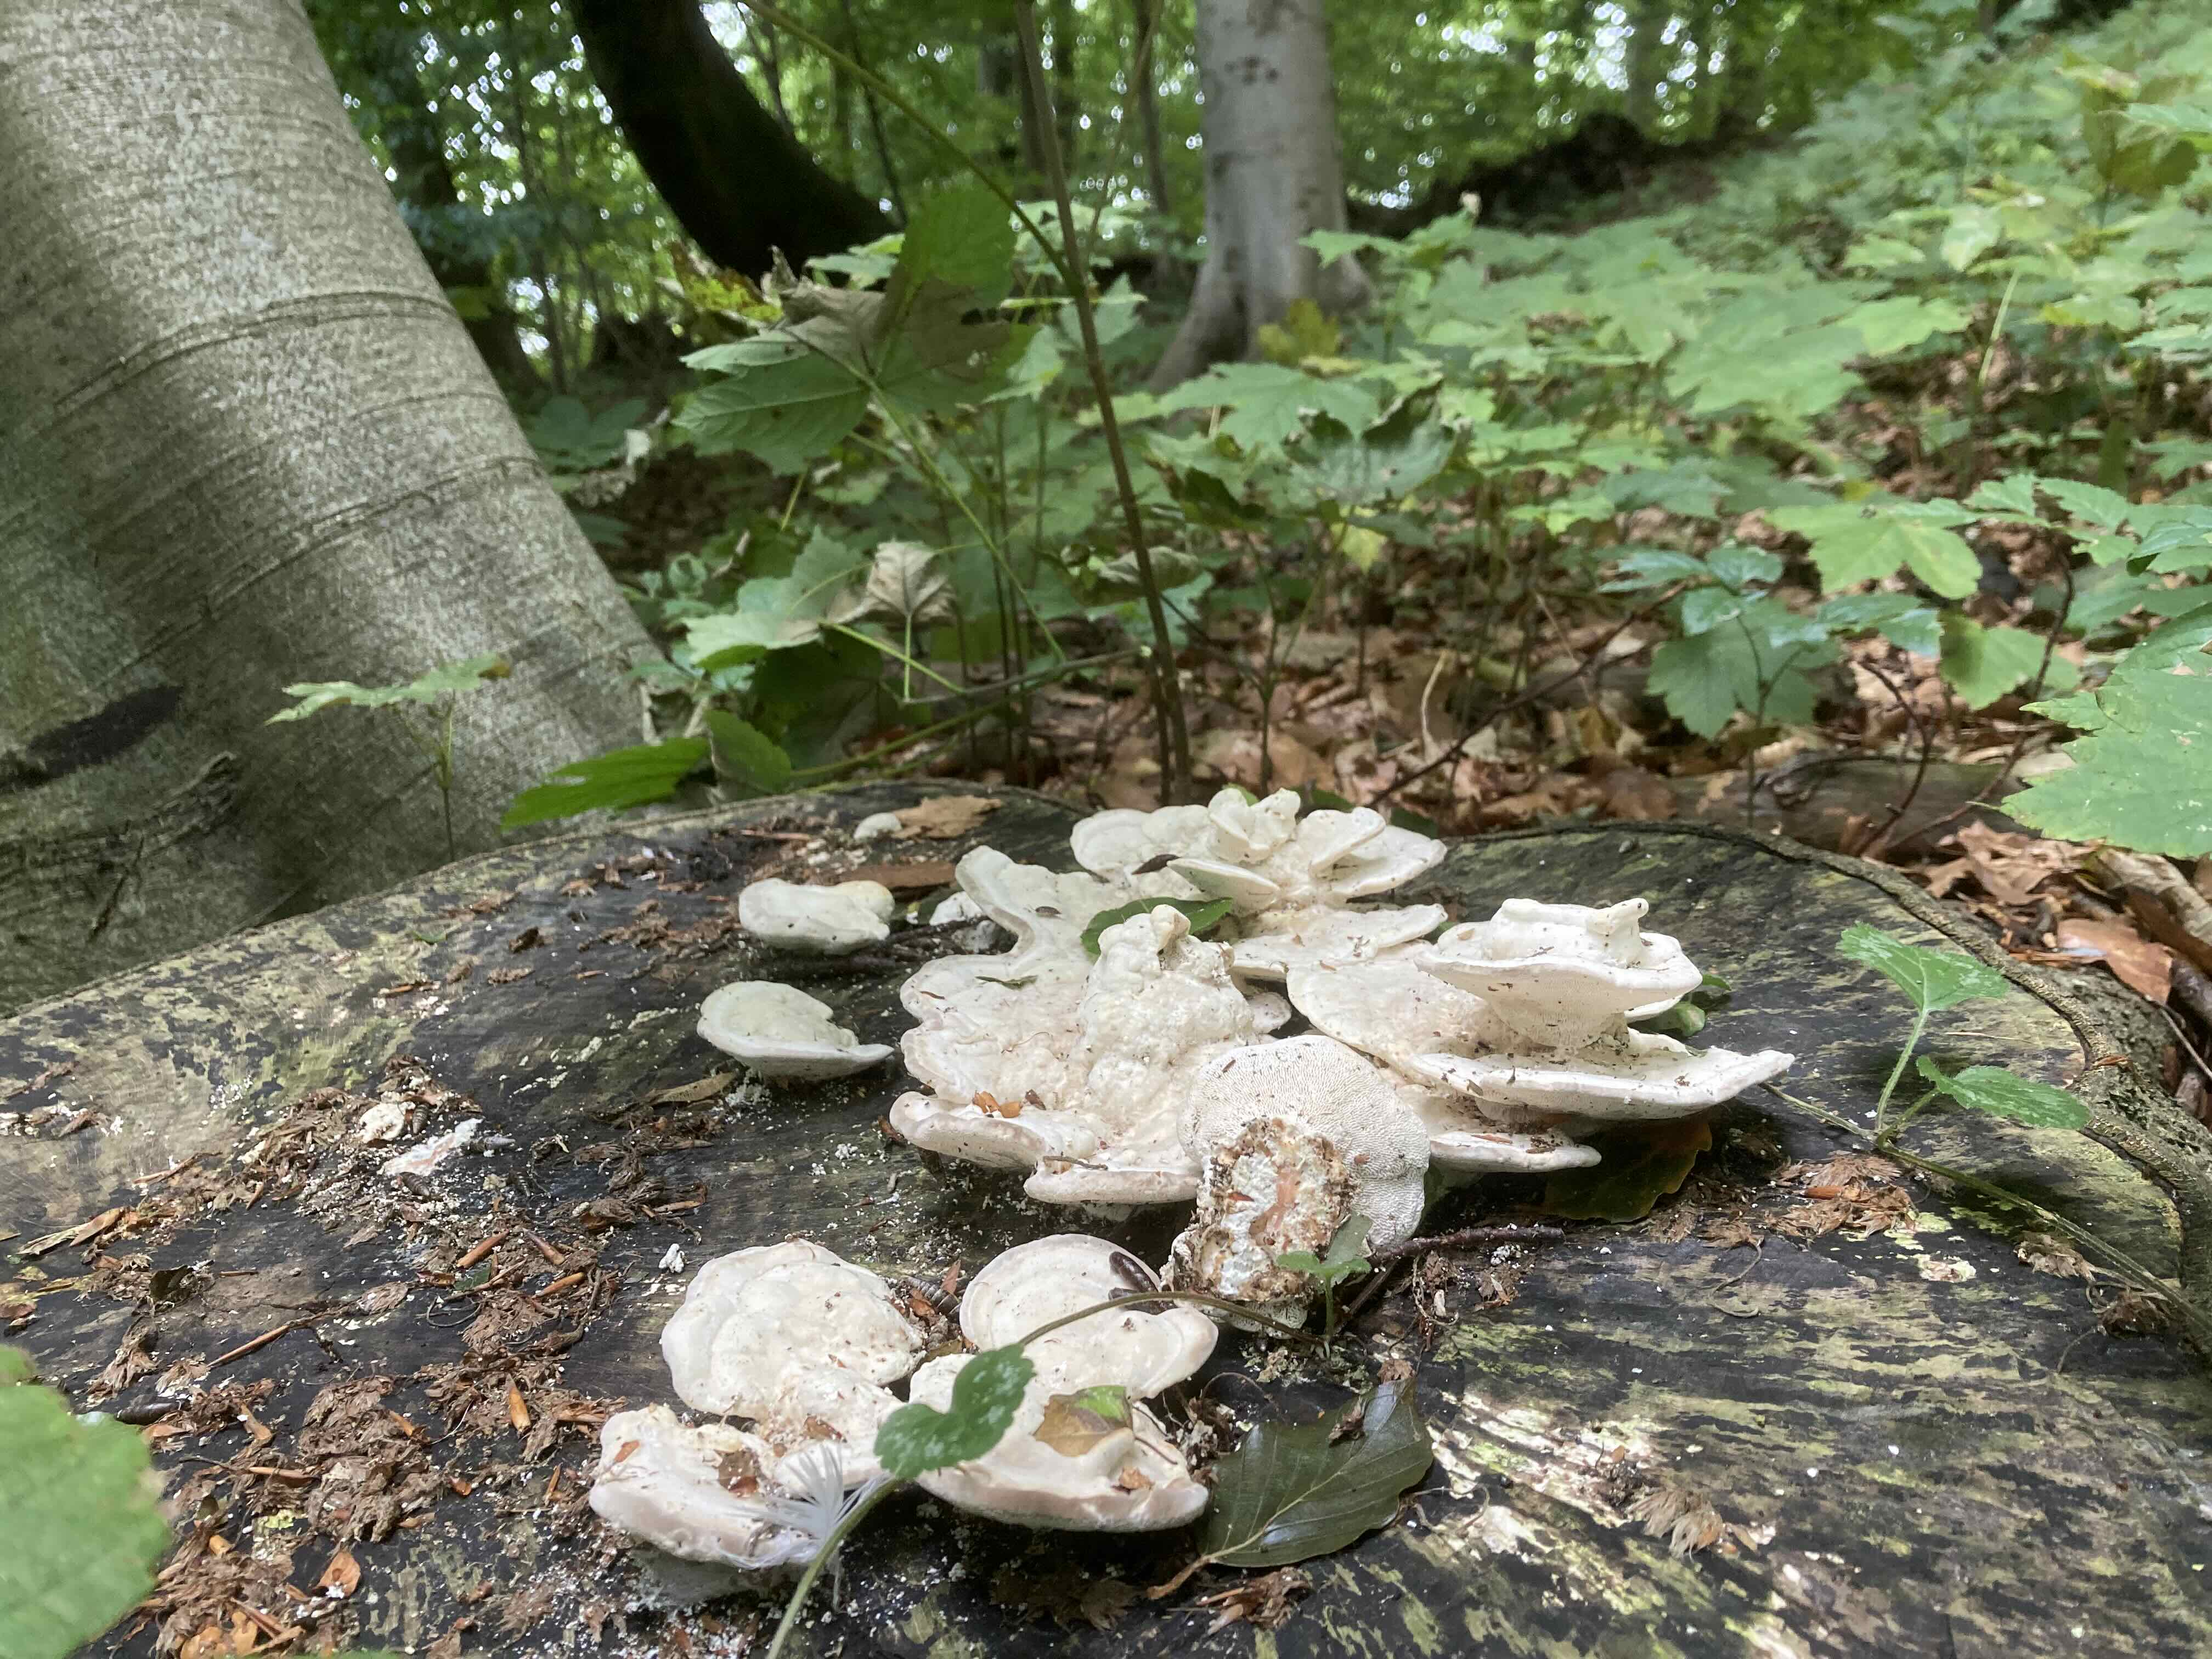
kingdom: Fungi
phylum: Basidiomycota
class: Agaricomycetes
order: Polyporales
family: Polyporaceae
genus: Trametes
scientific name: Trametes gibbosa
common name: puklet læderporesvamp
